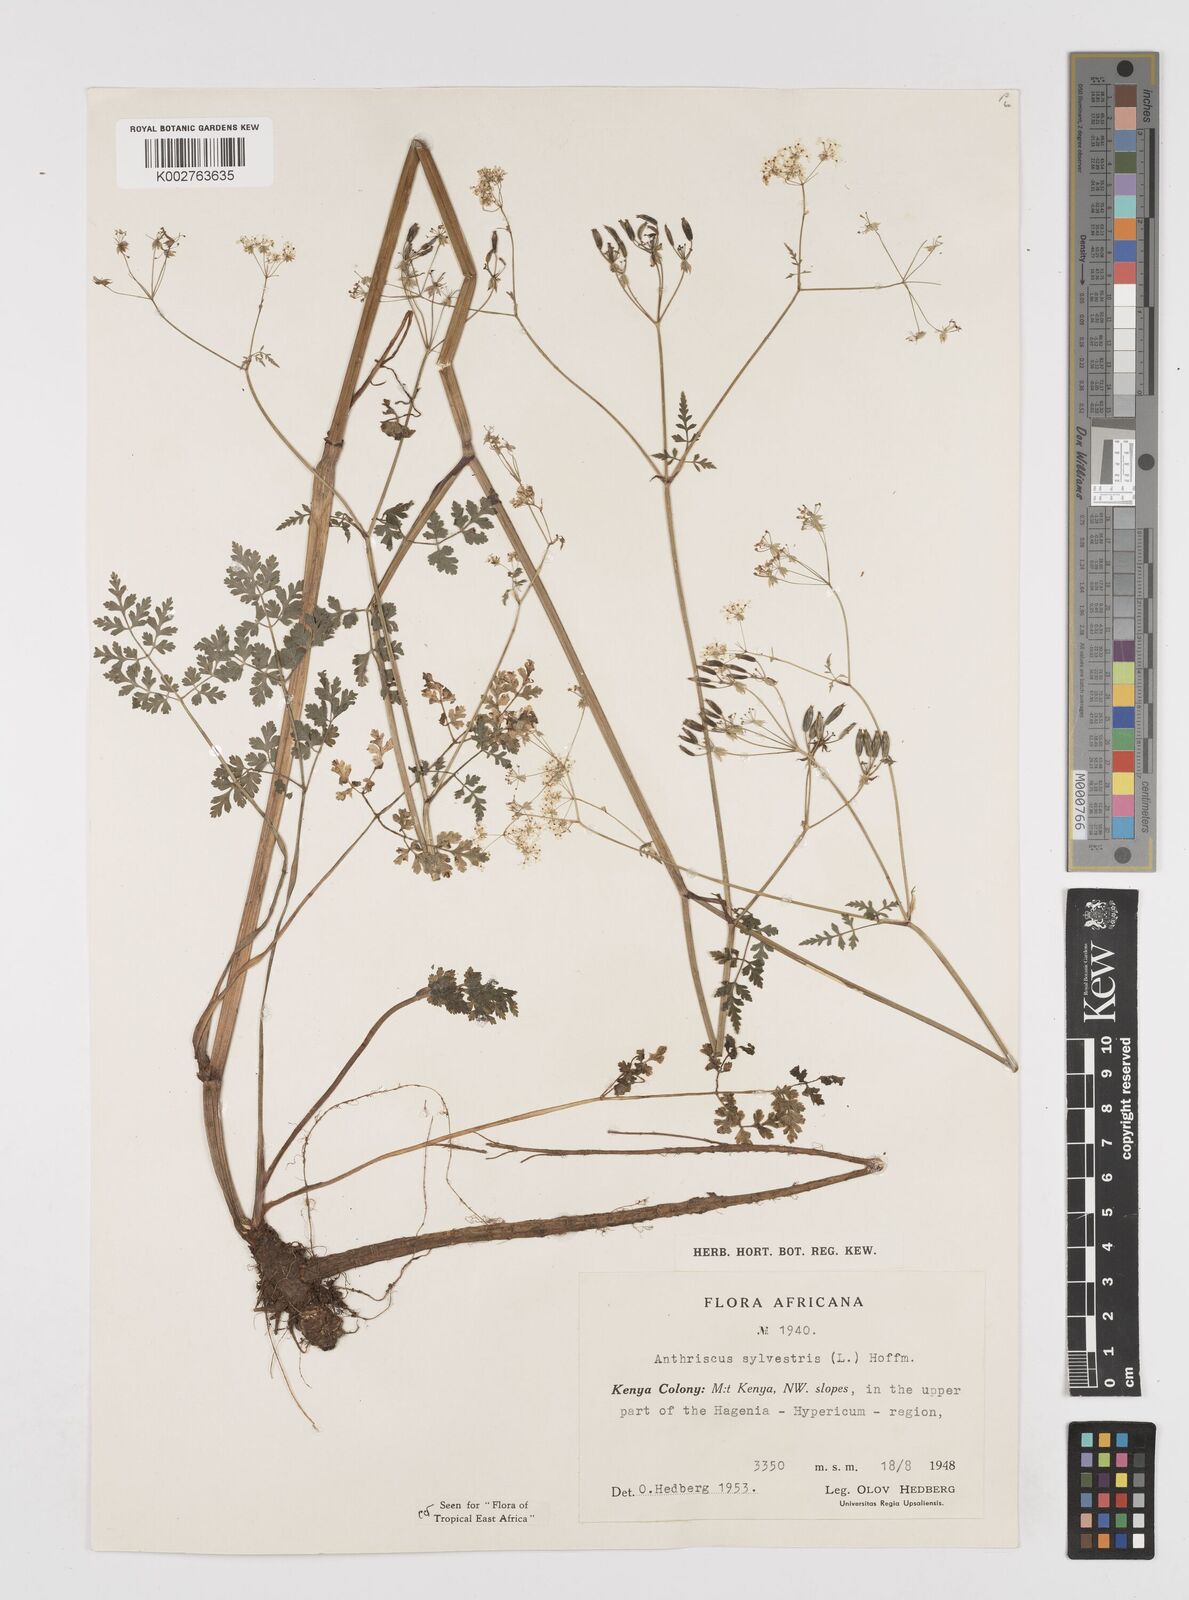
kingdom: Plantae
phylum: Tracheophyta
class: Magnoliopsida
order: Apiales
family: Apiaceae
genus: Anthriscus
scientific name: Anthriscus sylvestris
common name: Cow parsley
